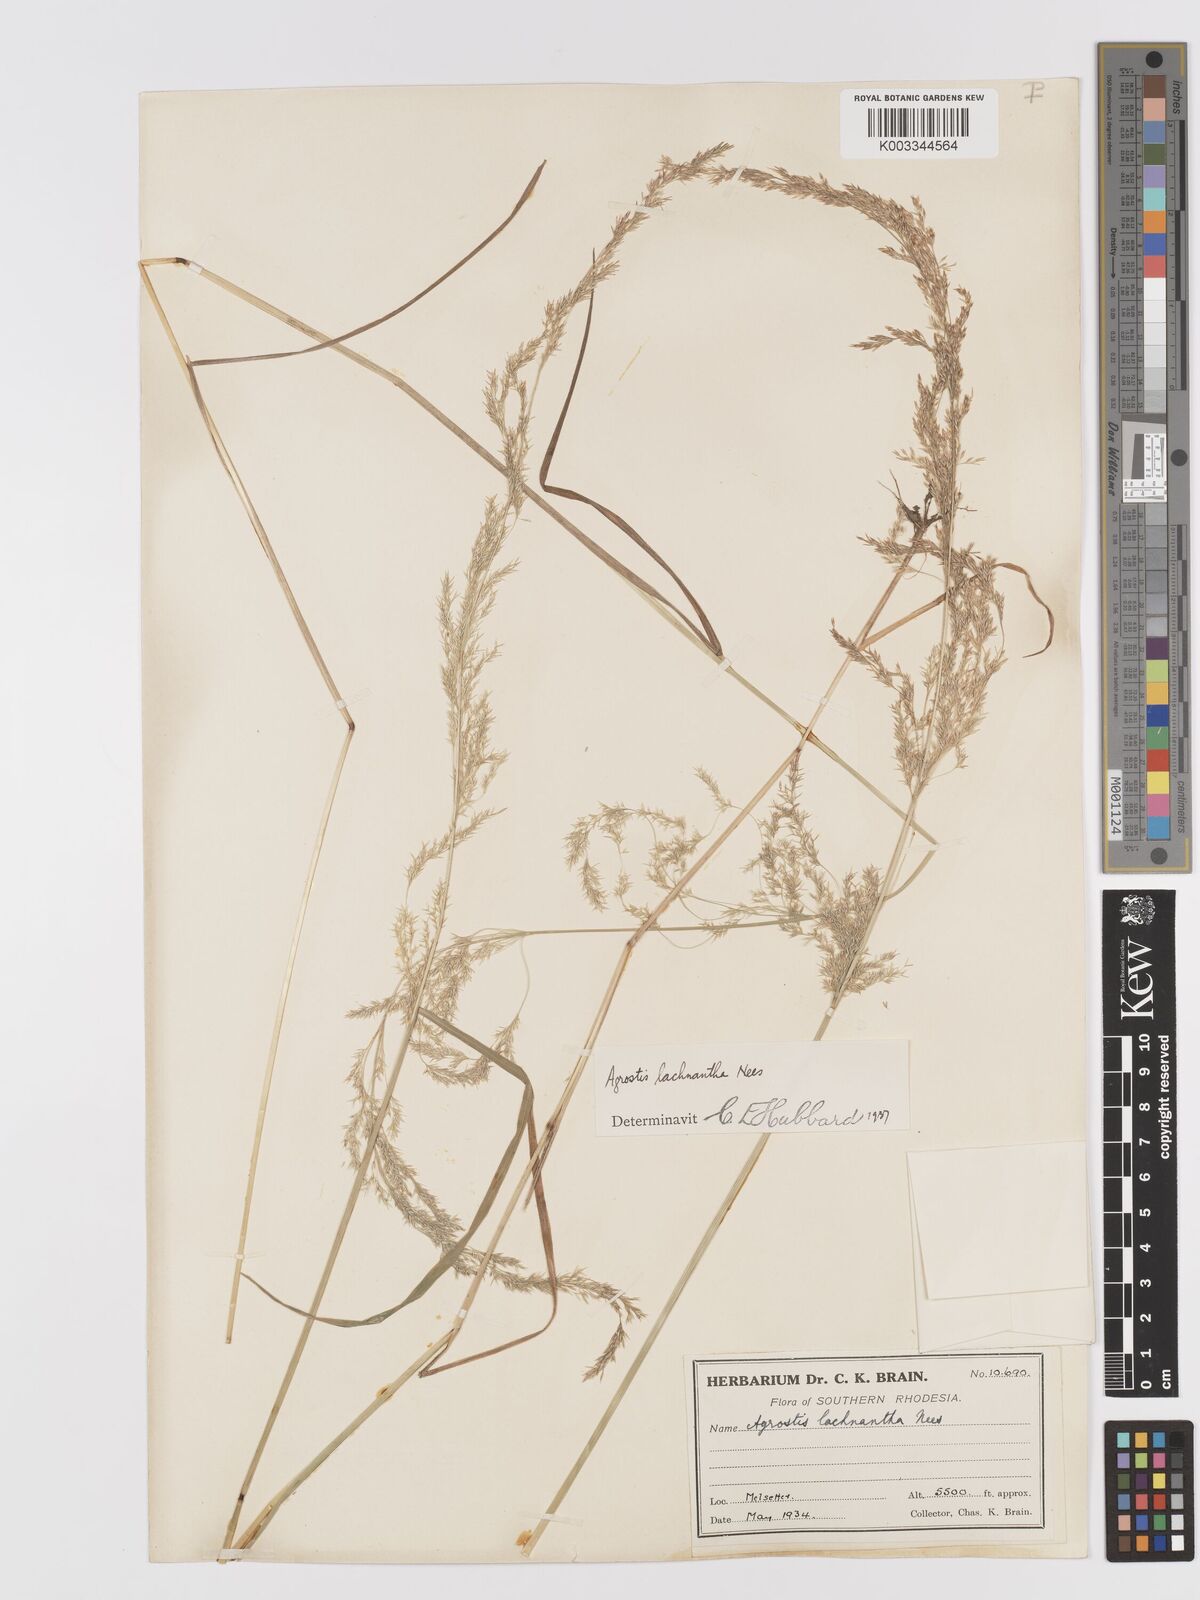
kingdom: Plantae
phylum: Tracheophyta
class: Liliopsida
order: Poales
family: Poaceae
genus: Lachnagrostis
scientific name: Lachnagrostis lachnantha
